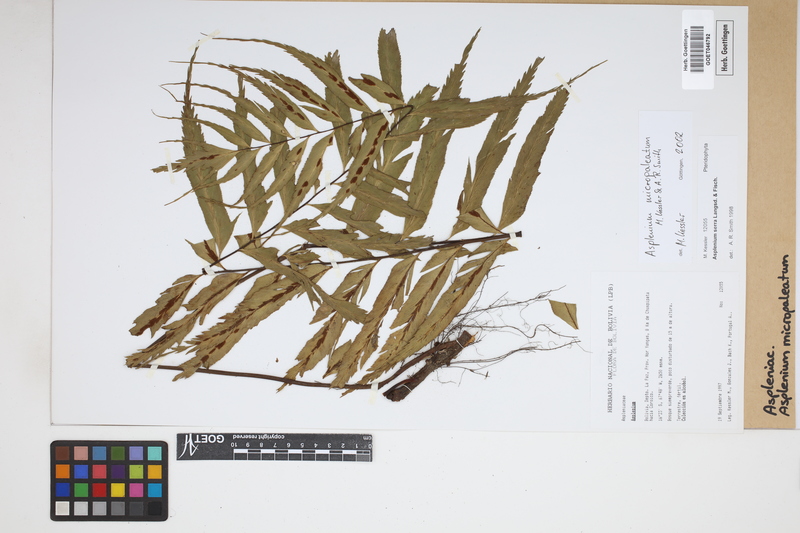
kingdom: Plantae
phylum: Tracheophyta
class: Polypodiopsida
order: Polypodiales
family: Aspleniaceae
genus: Asplenium
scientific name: Asplenium micropaleatum
